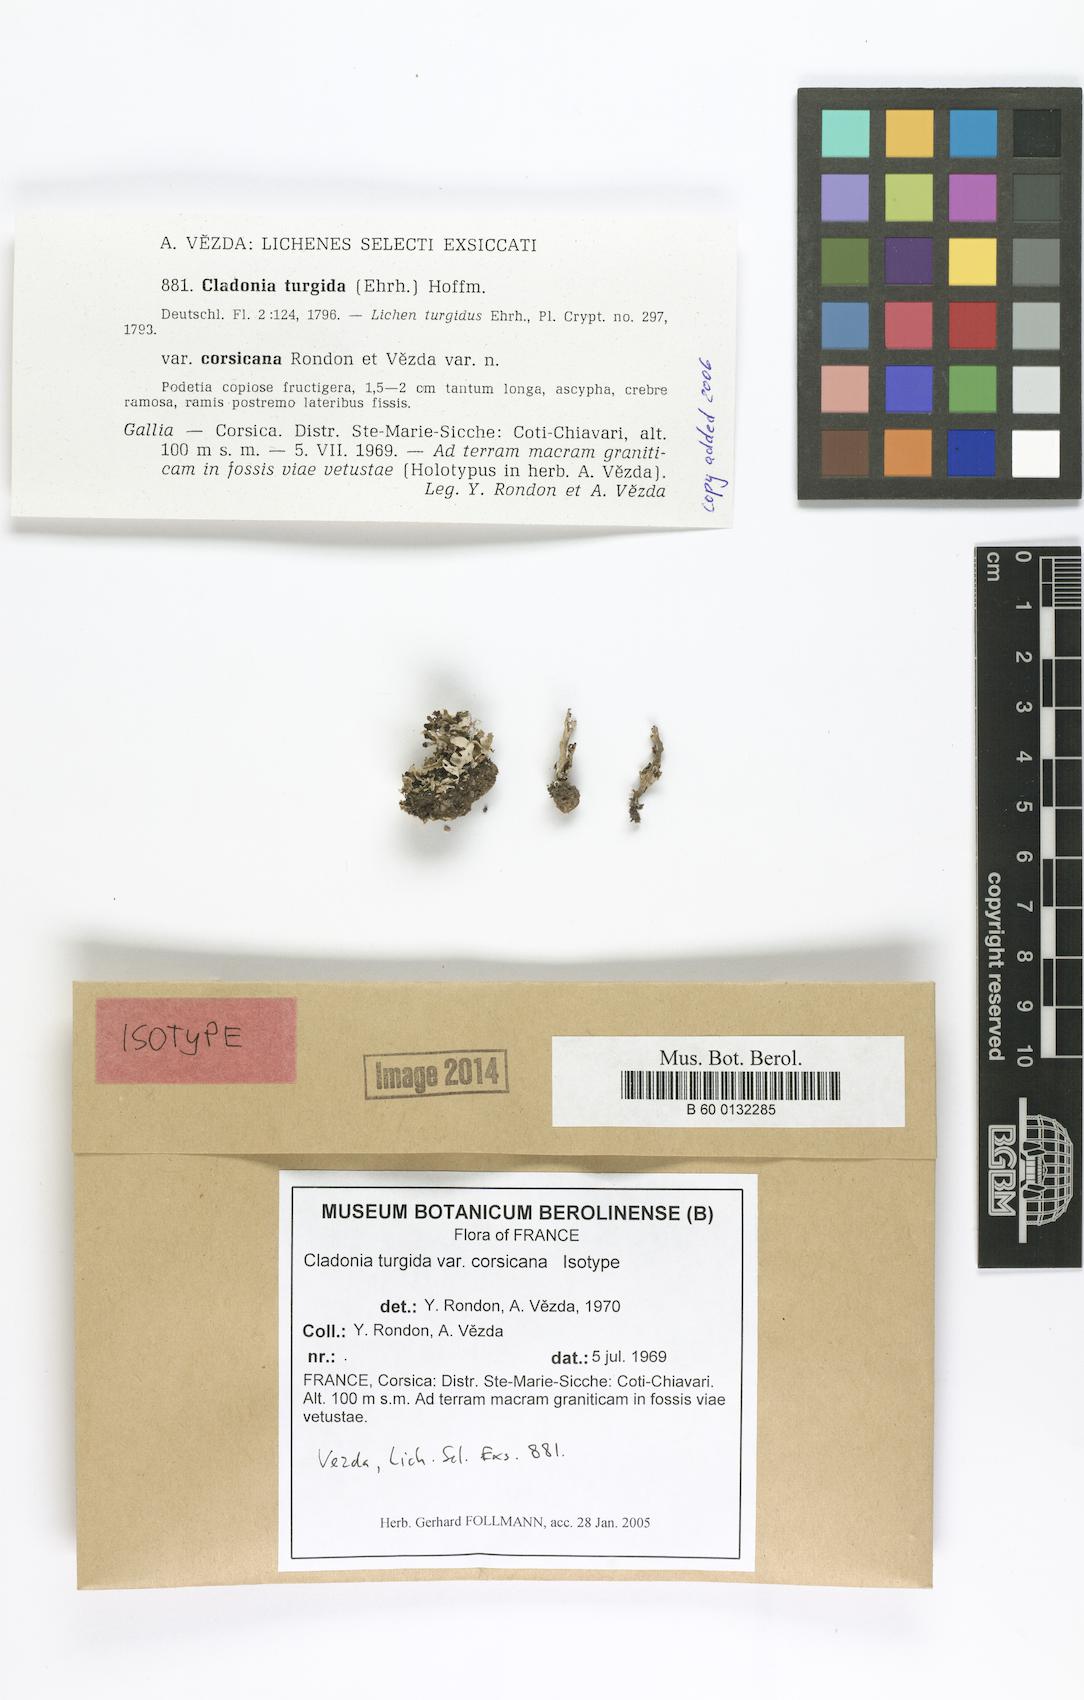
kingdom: Fungi
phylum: Ascomycota
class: Lecanoromycetes
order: Lecanorales
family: Cladoniaceae
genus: Cladonia
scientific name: Cladonia corsicana
